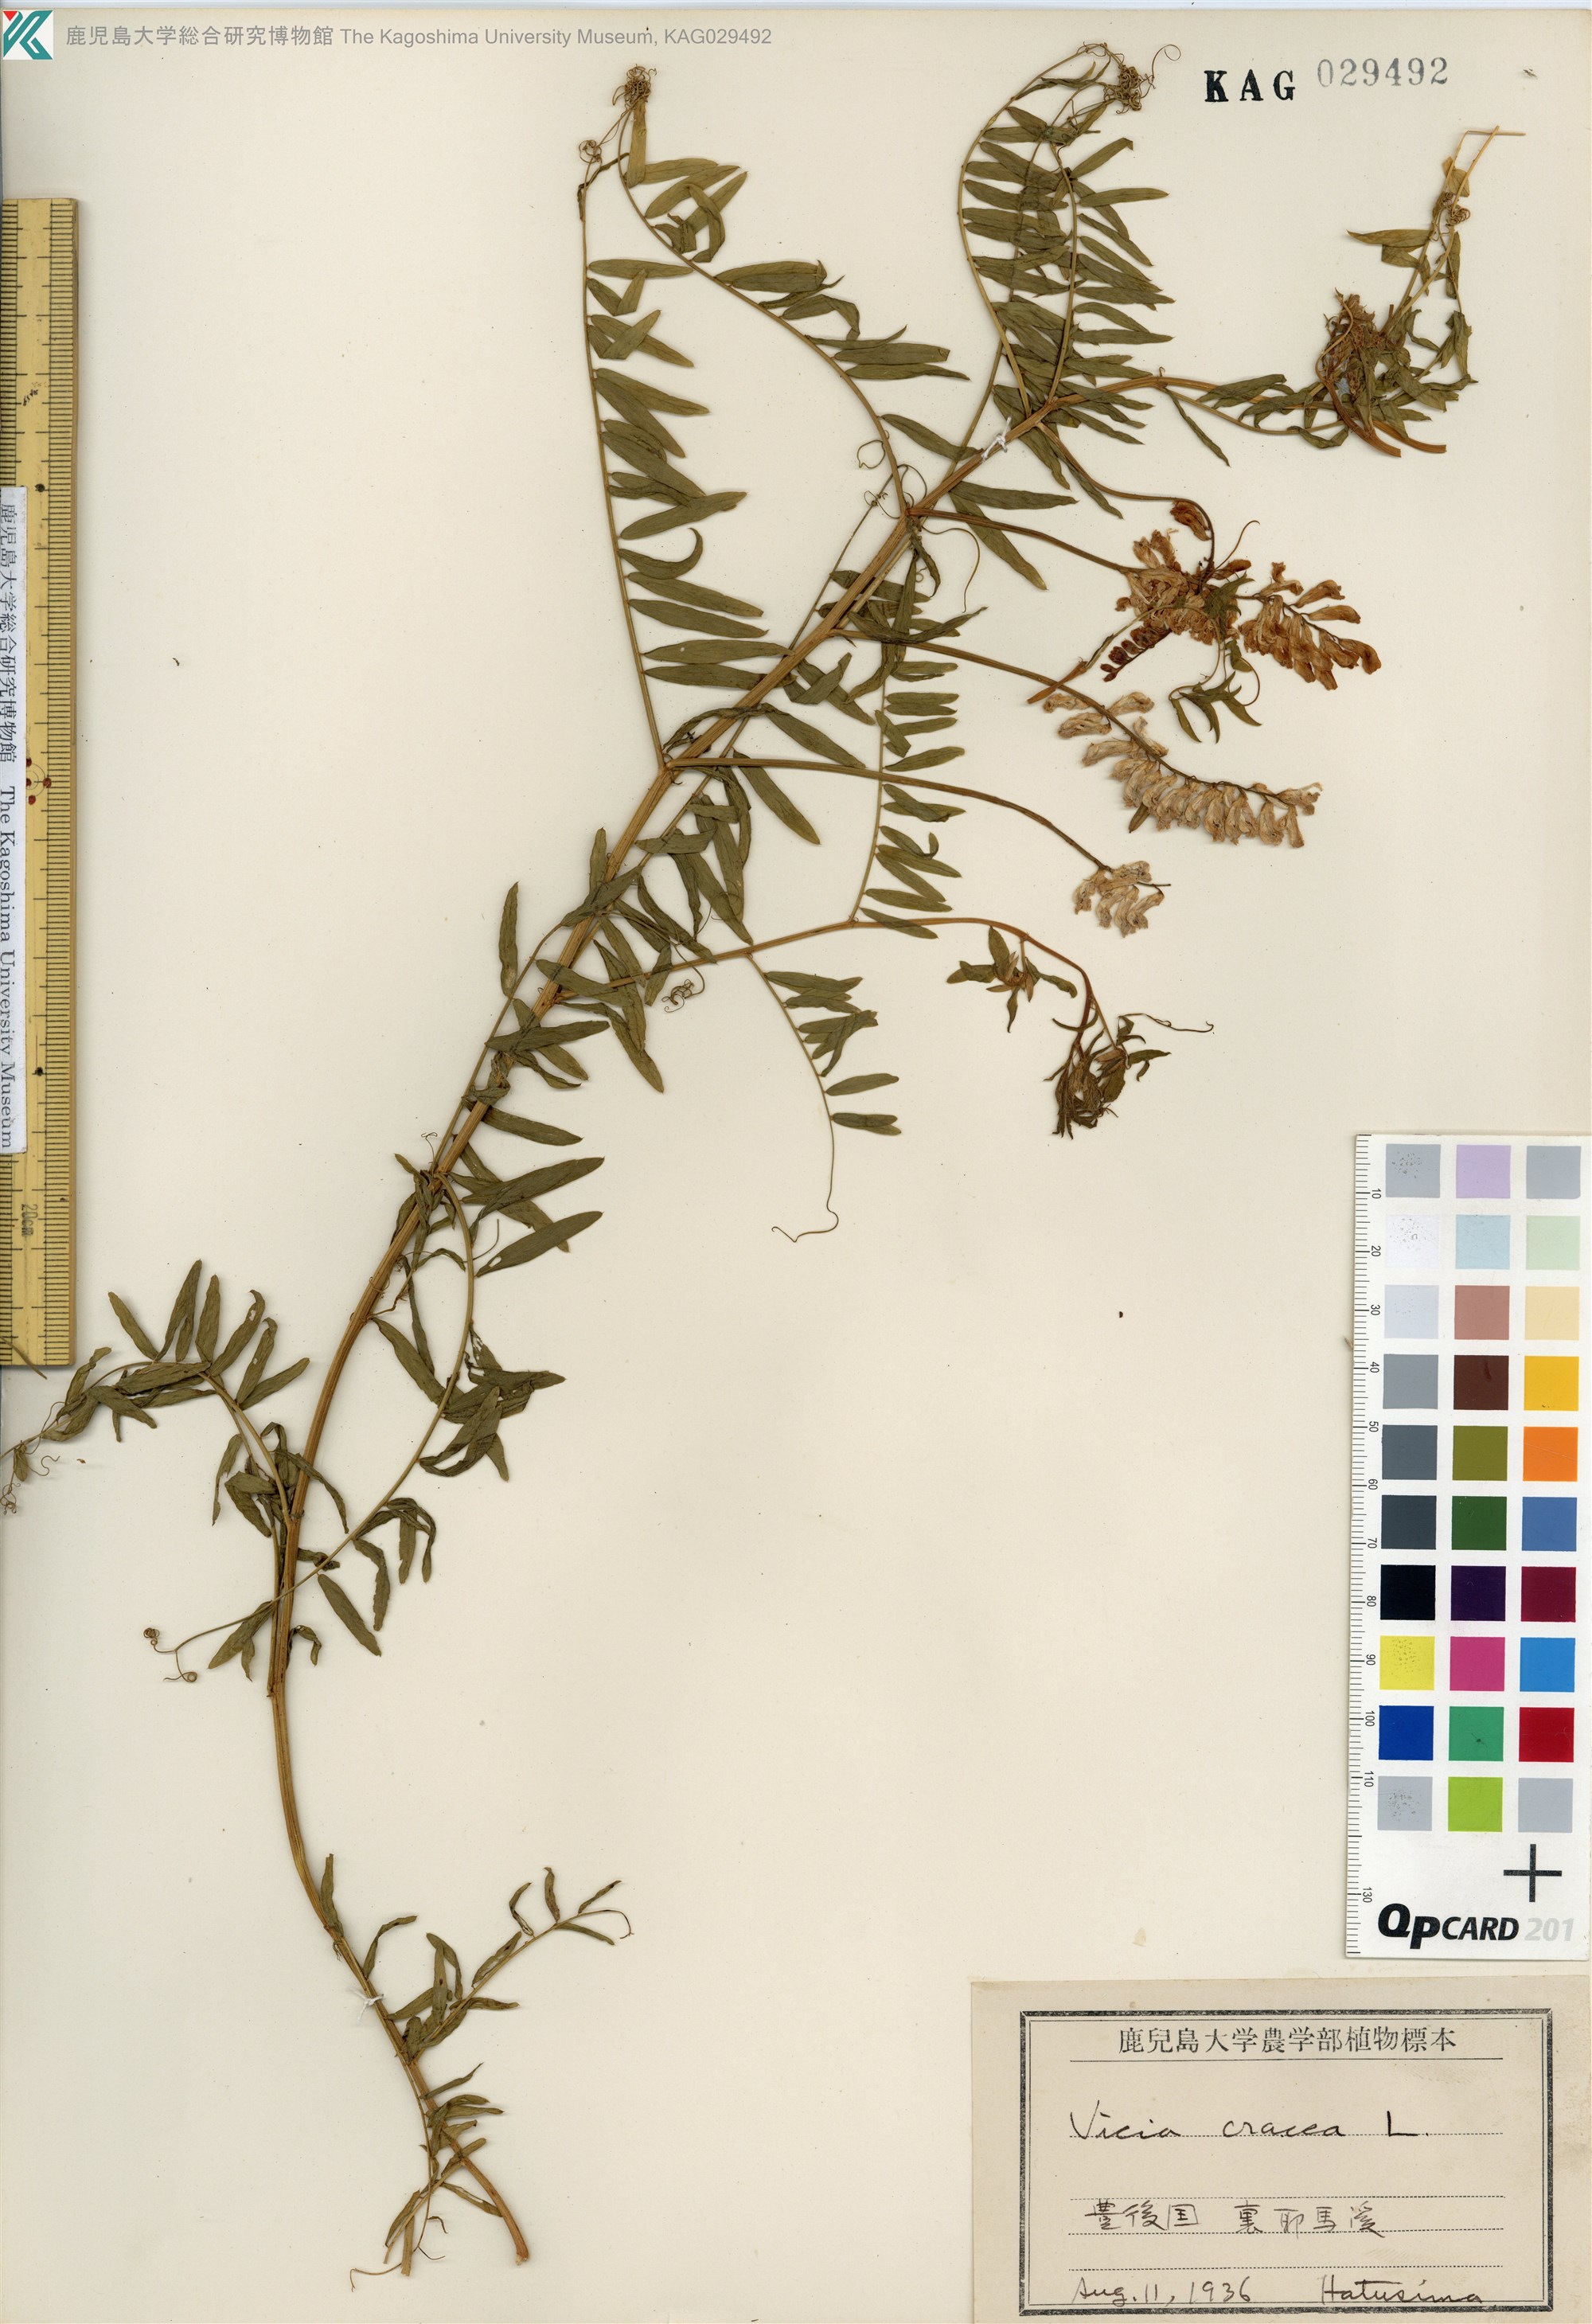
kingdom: Plantae
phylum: Tracheophyta
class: Magnoliopsida
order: Fabales
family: Fabaceae
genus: Vicia
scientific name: Vicia cracca
